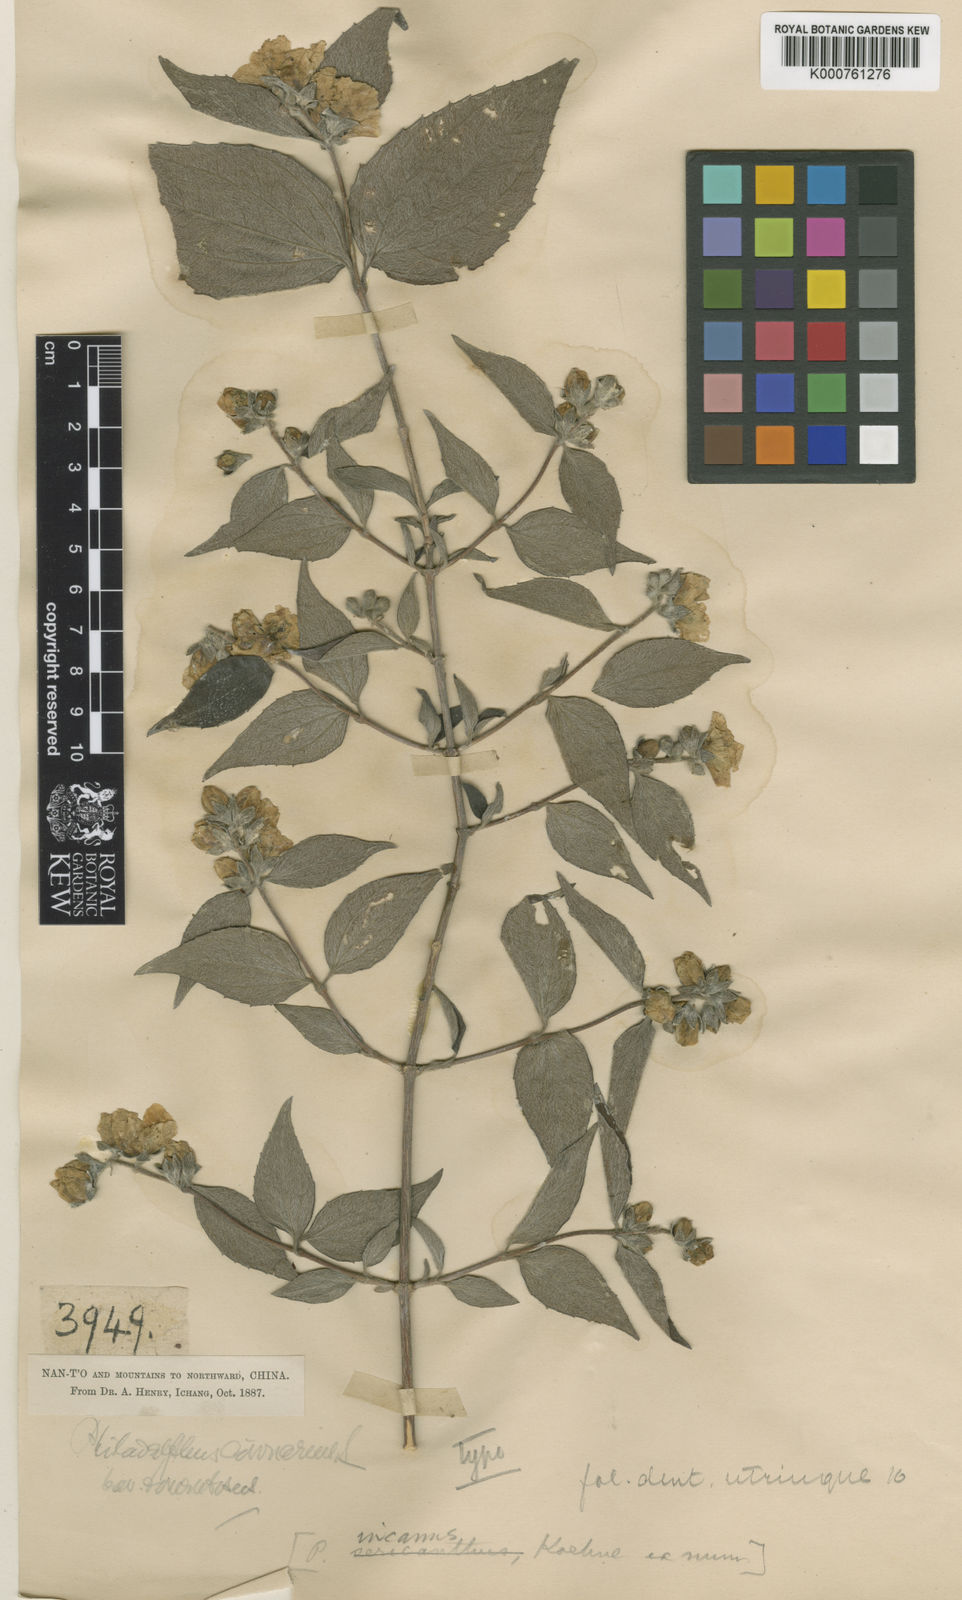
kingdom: Plantae
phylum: Tracheophyta
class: Magnoliopsida
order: Cornales
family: Hydrangeaceae
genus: Philadelphus
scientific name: Philadelphus incanus
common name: Hairy mock orange
